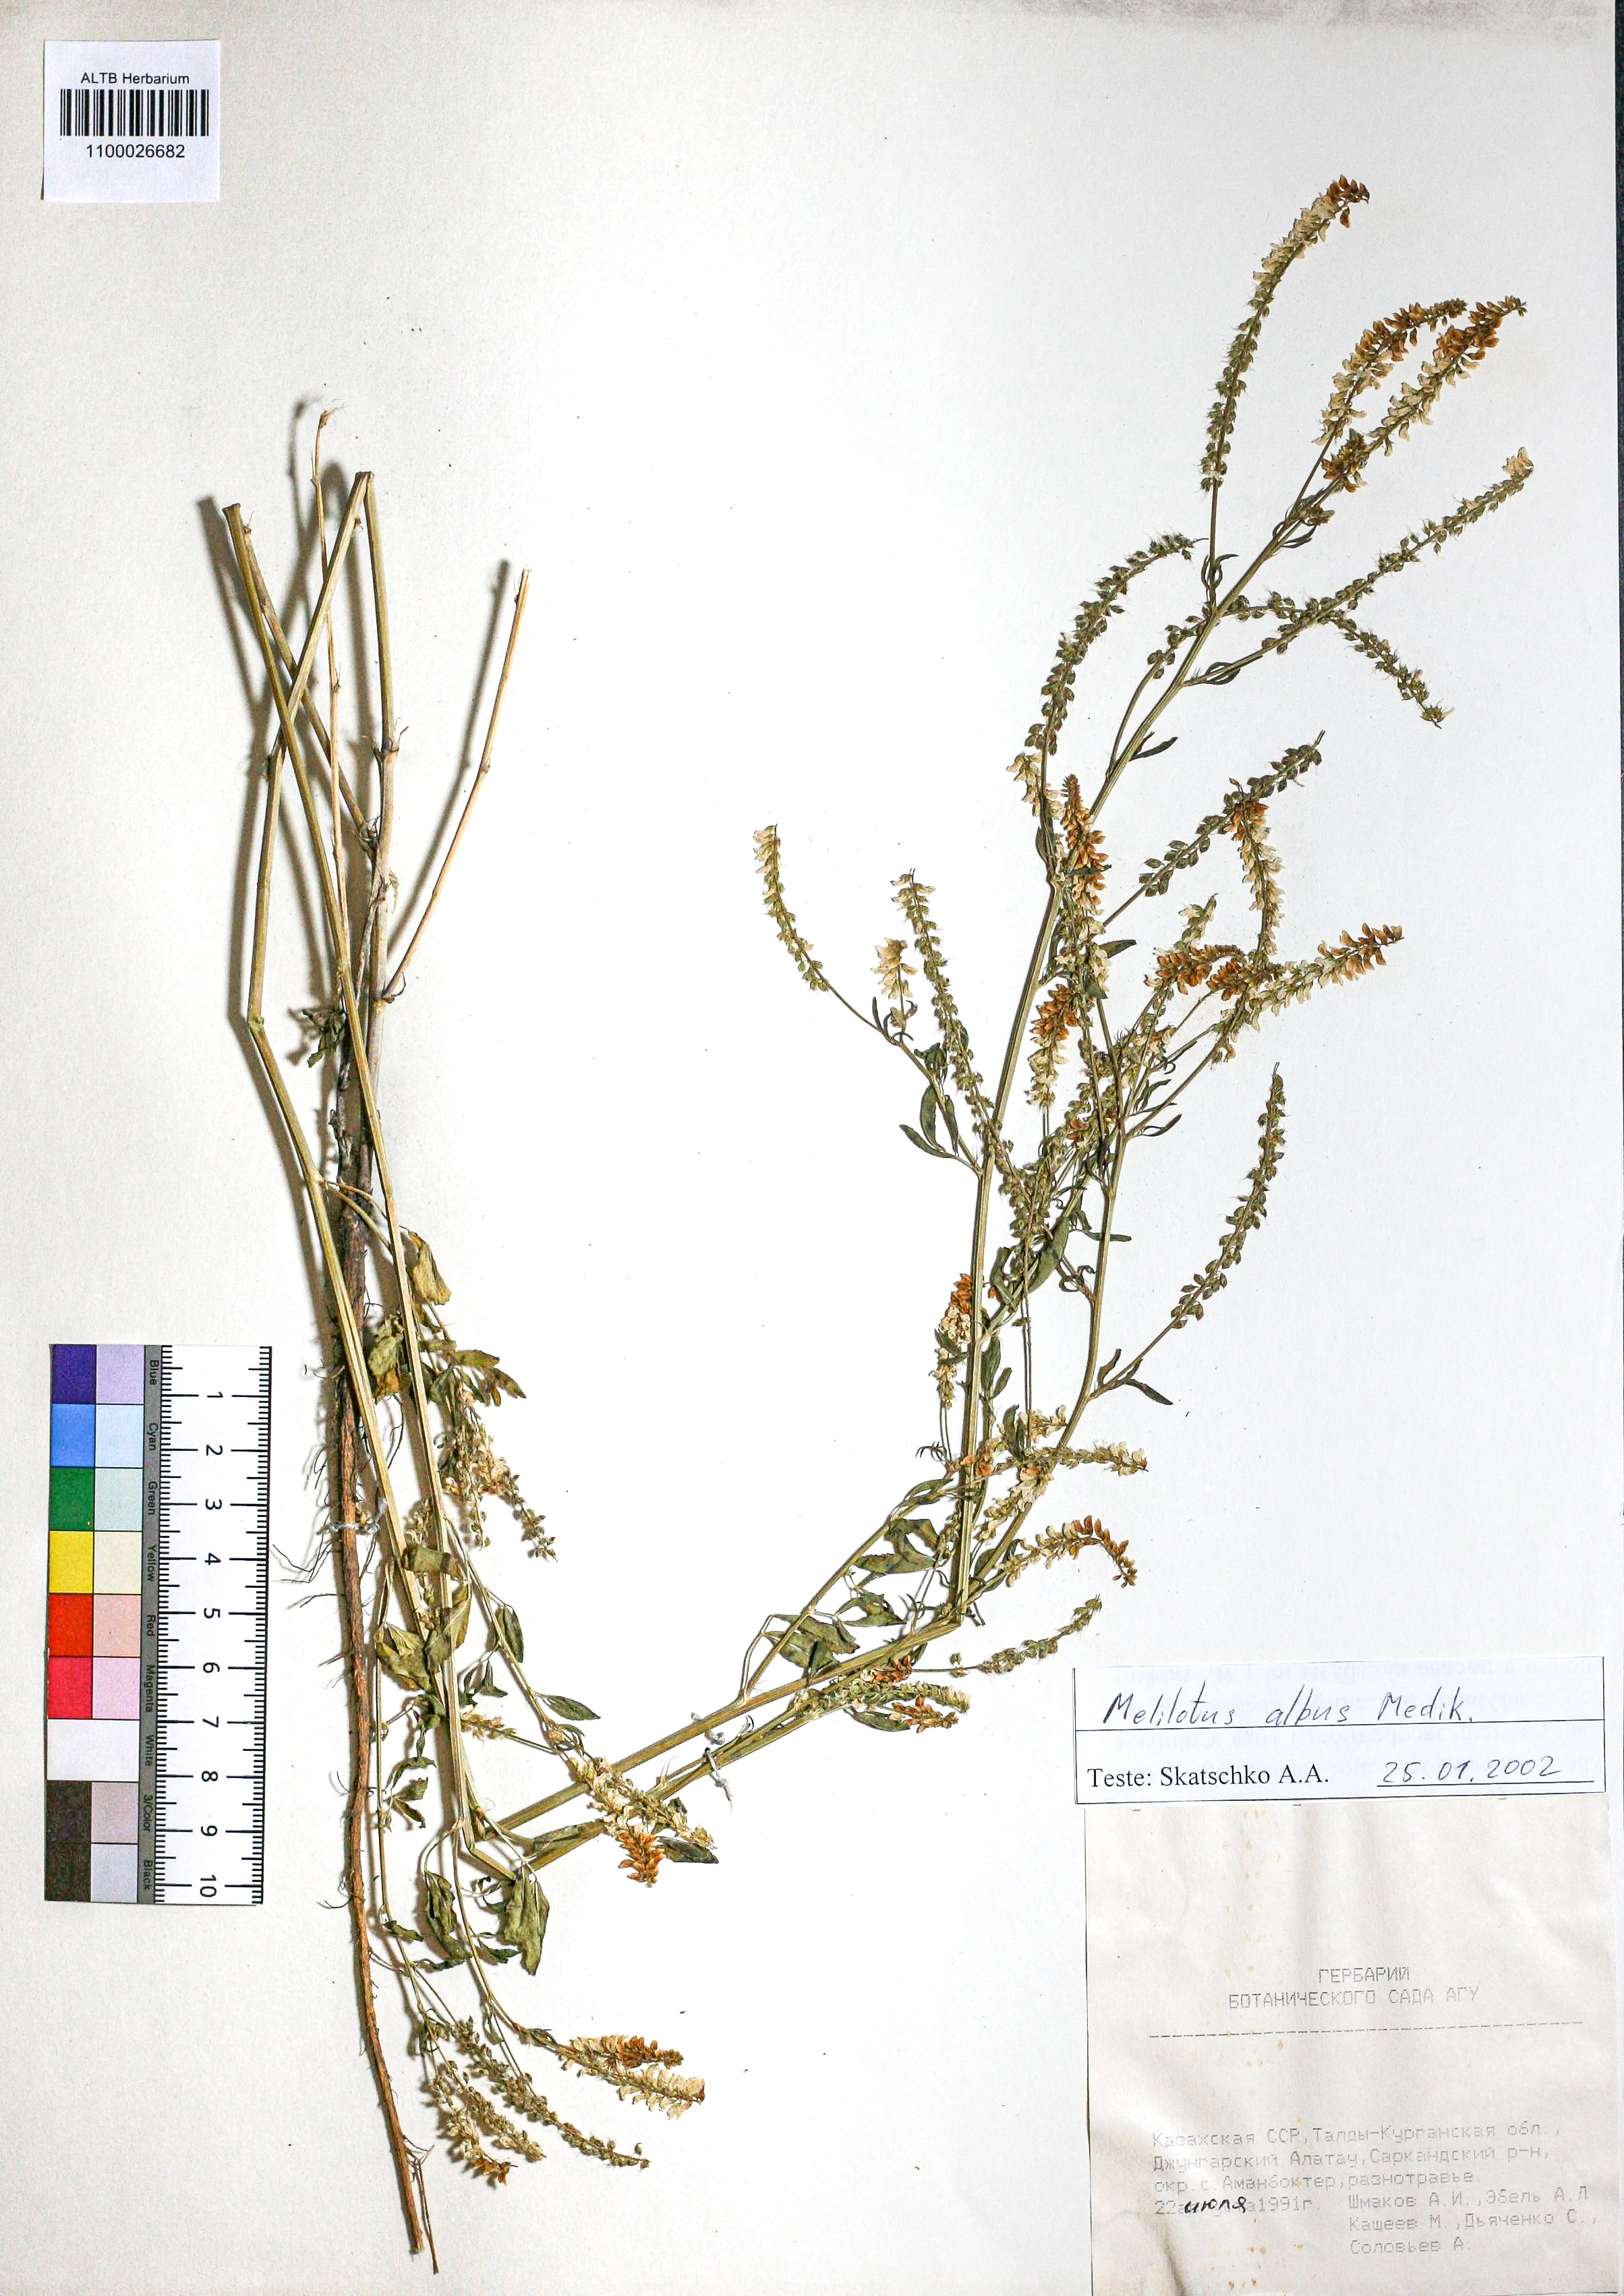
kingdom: Plantae
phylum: Tracheophyta
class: Magnoliopsida
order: Fabales
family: Fabaceae
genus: Melilotus
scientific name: Melilotus albus
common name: White melilot
